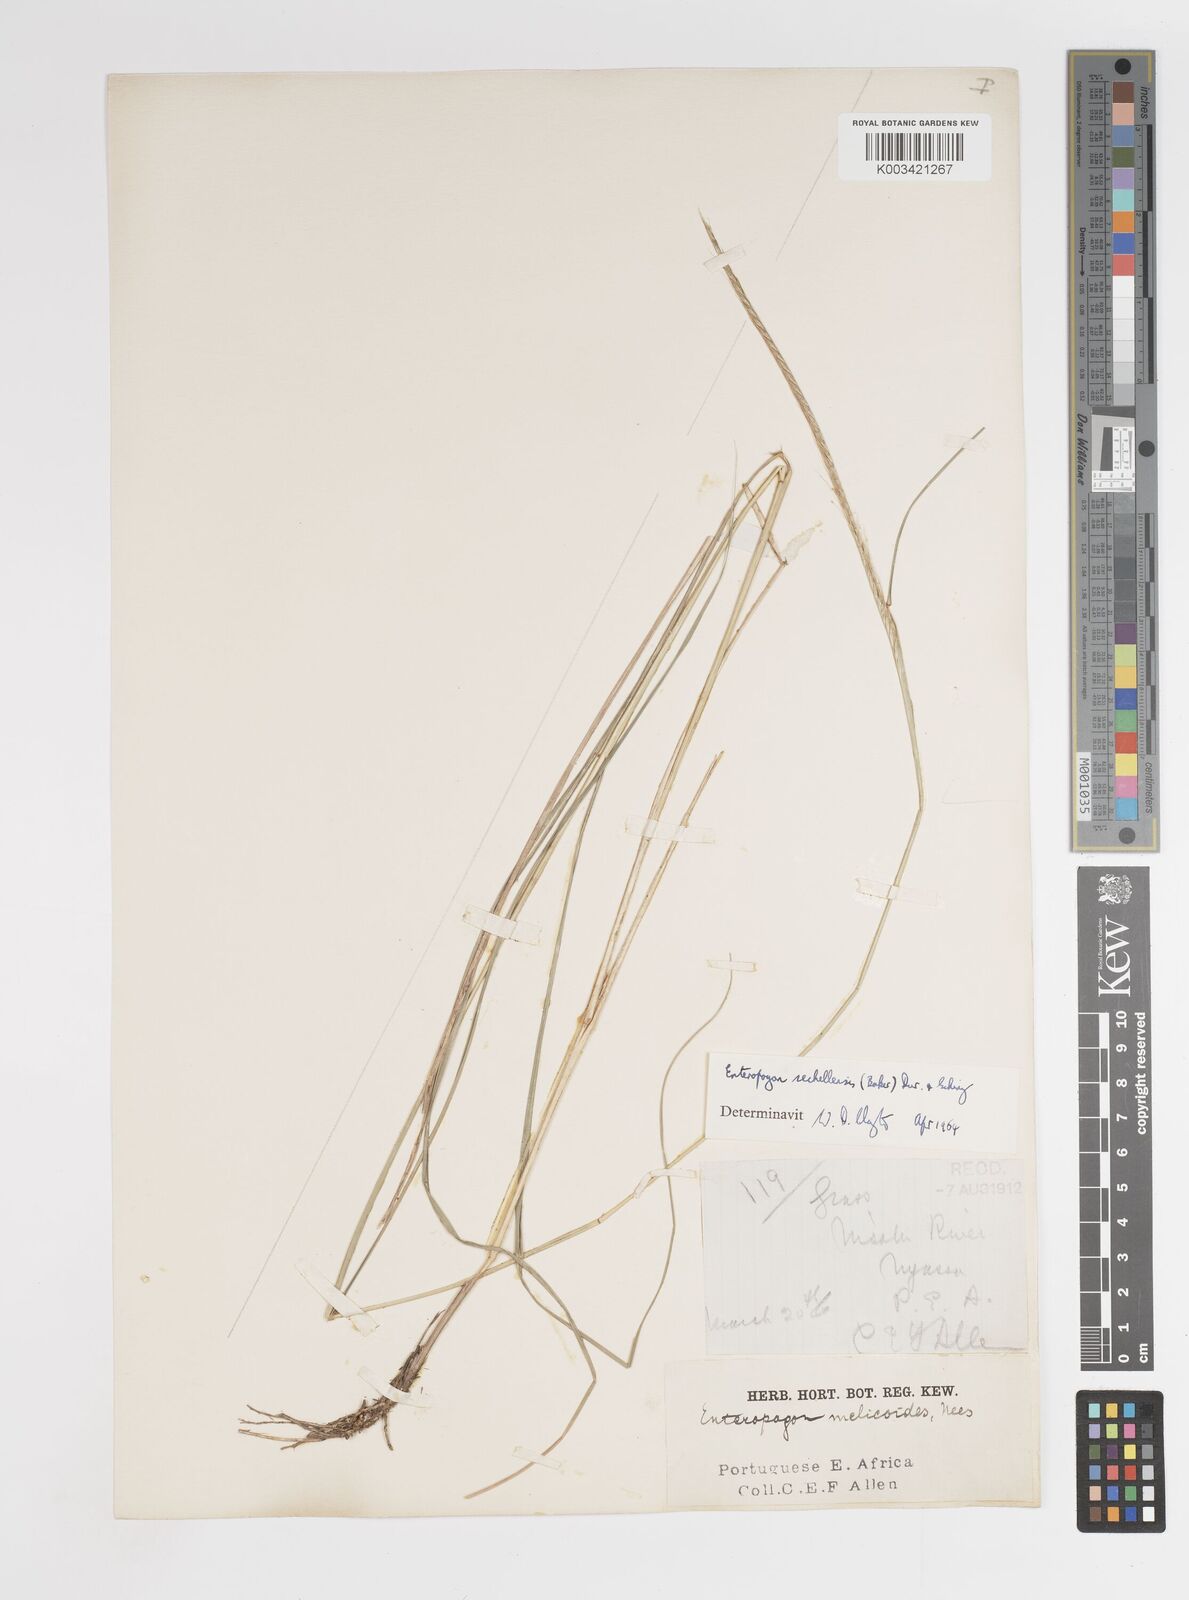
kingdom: Plantae
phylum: Tracheophyta
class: Liliopsida
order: Poales
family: Poaceae
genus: Enteropogon
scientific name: Enteropogon sechellensis
